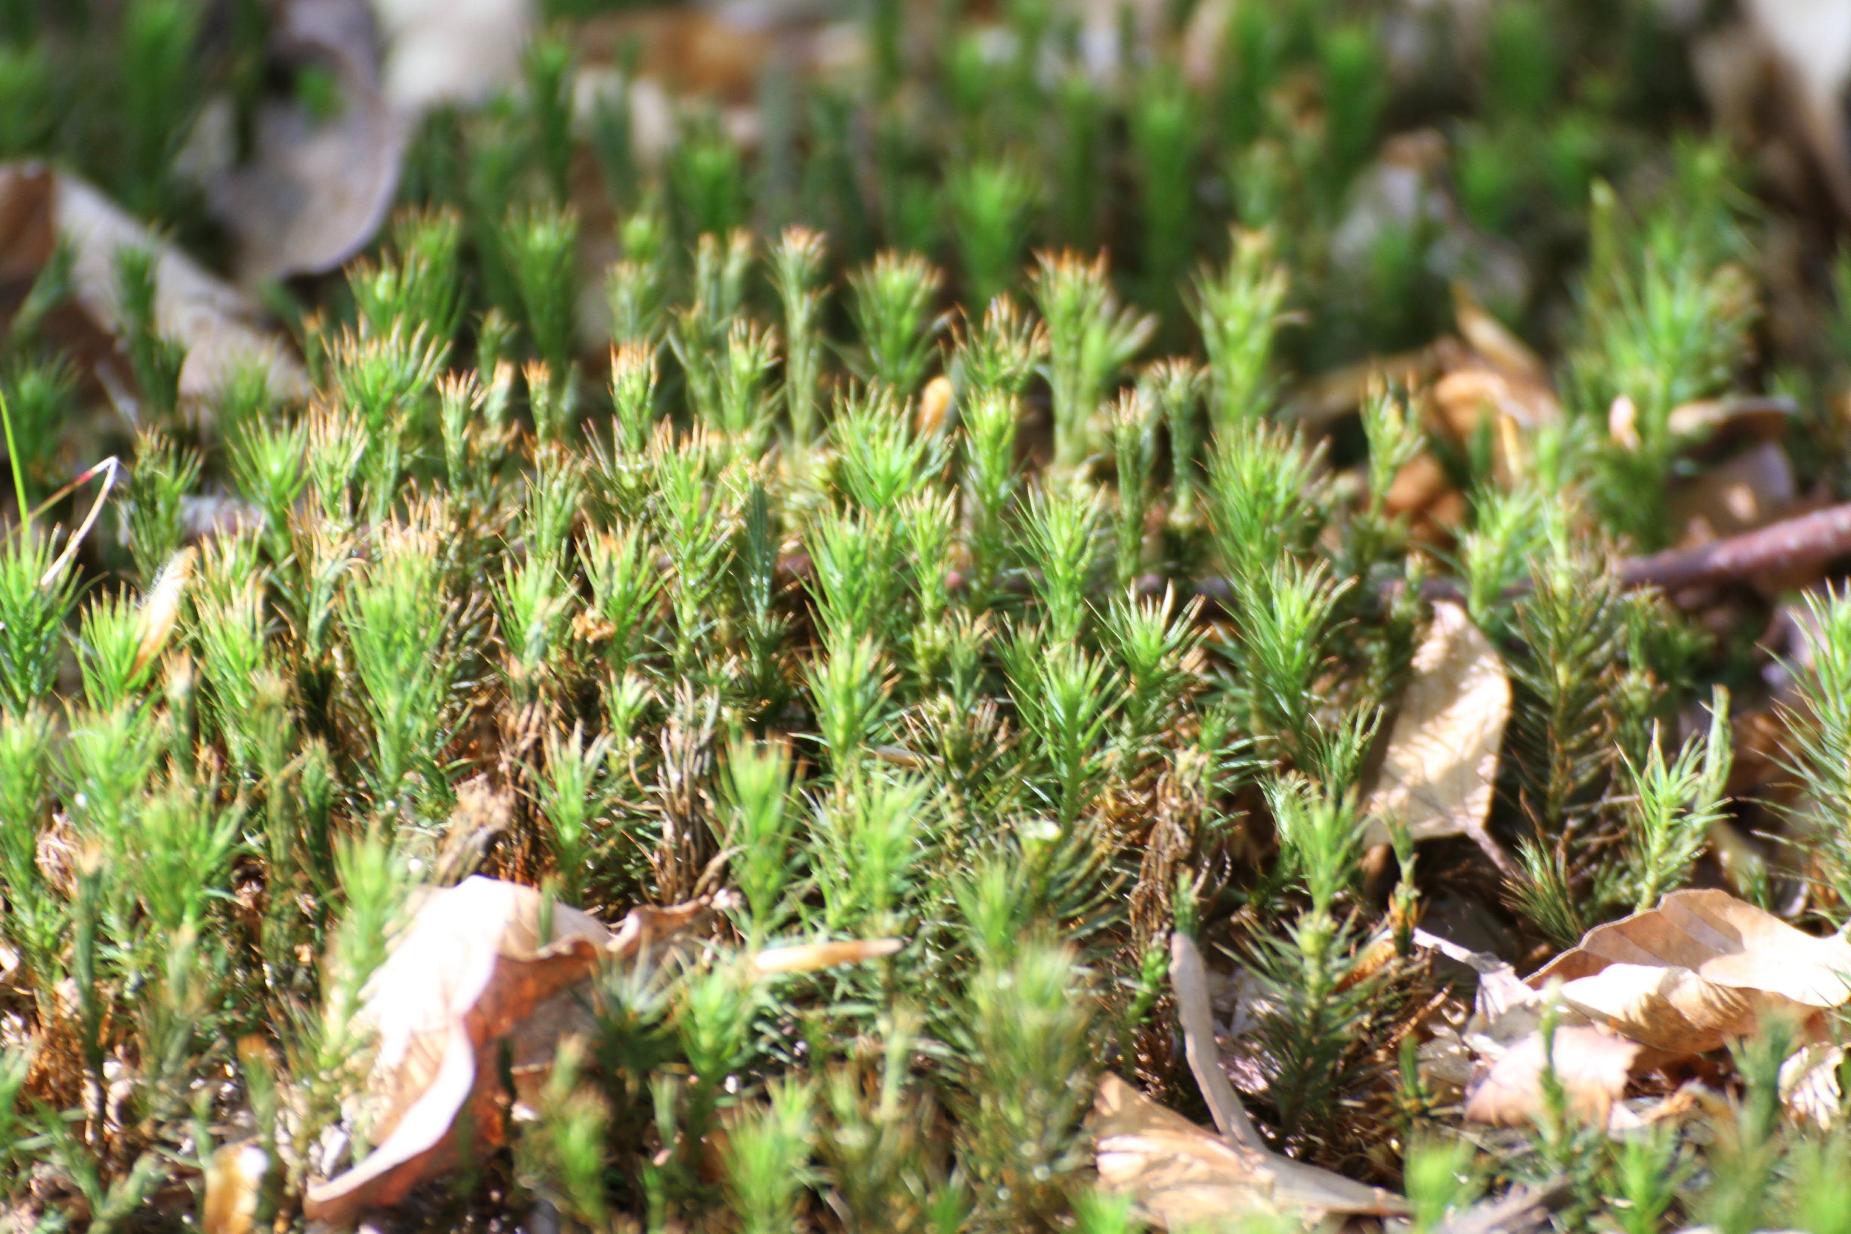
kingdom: Plantae
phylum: Bryophyta
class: Polytrichopsida
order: Polytrichales
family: Polytrichaceae
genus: Polytrichum
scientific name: Polytrichum formosum
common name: Skov-jomfruhår
